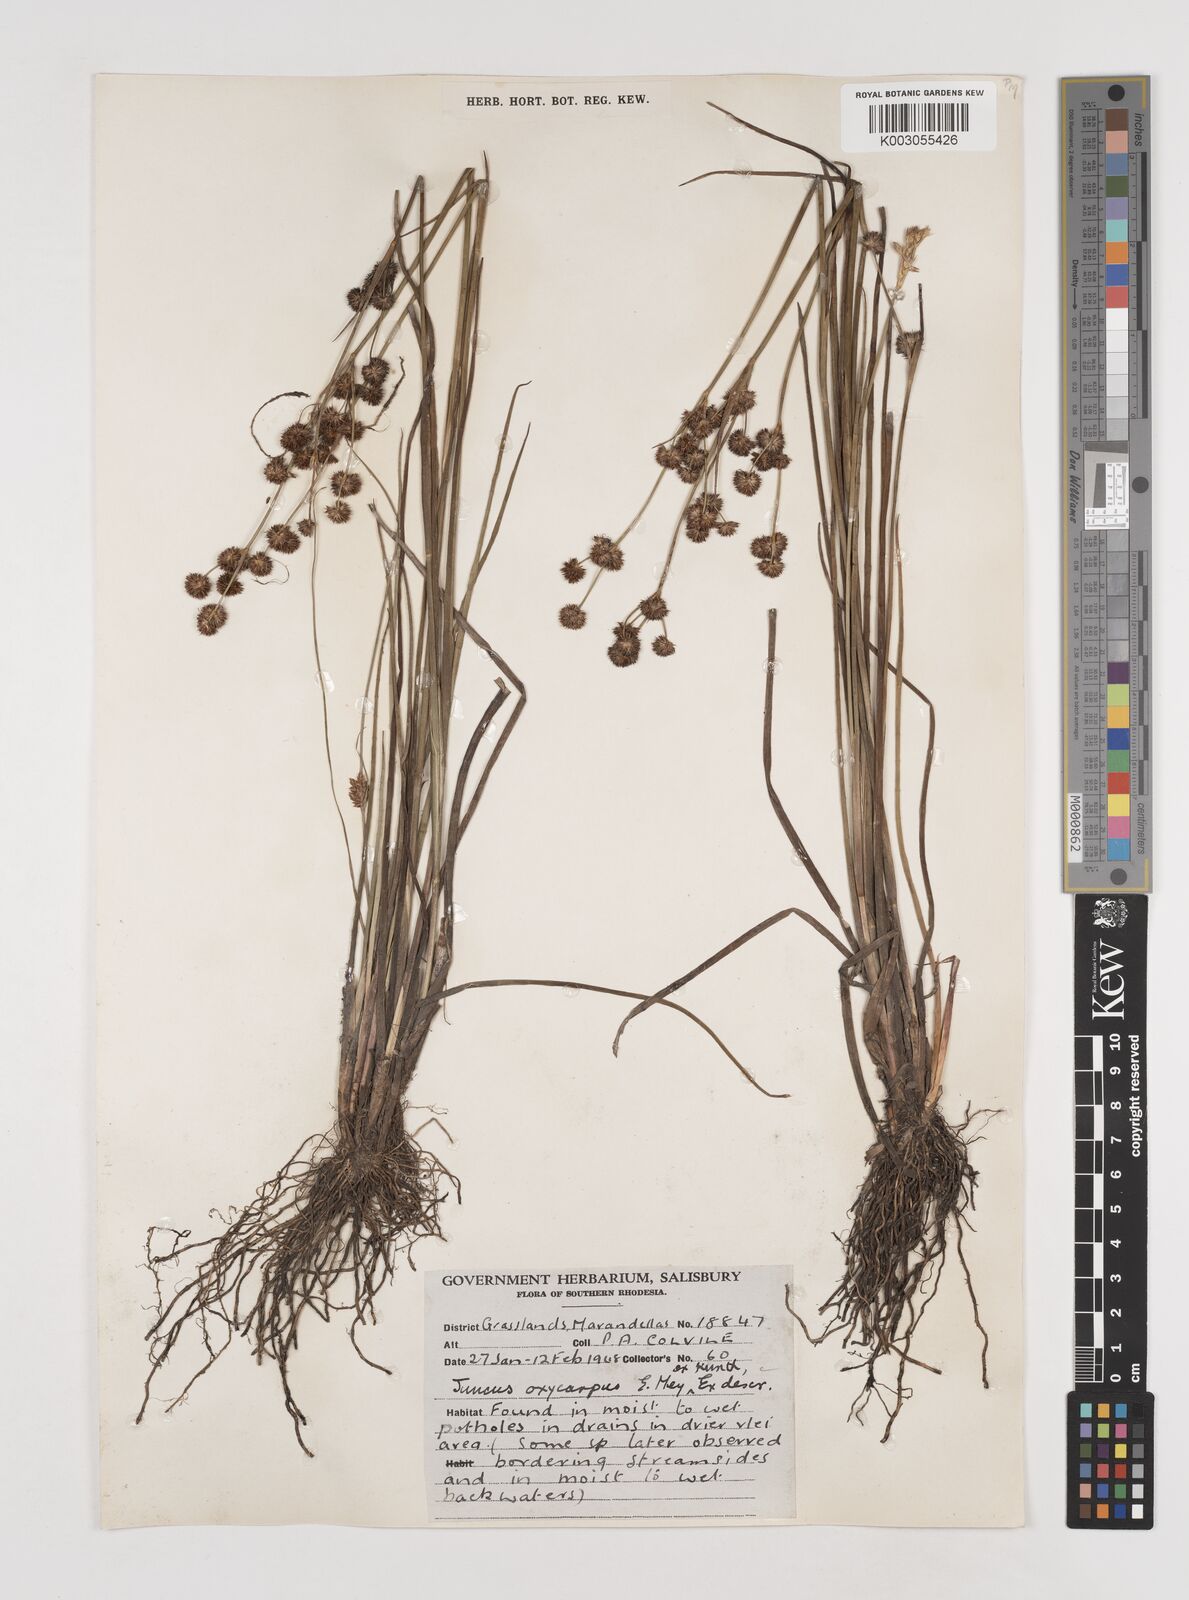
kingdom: Plantae
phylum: Tracheophyta
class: Liliopsida
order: Poales
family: Juncaceae
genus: Juncus
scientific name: Juncus oxycarpus
